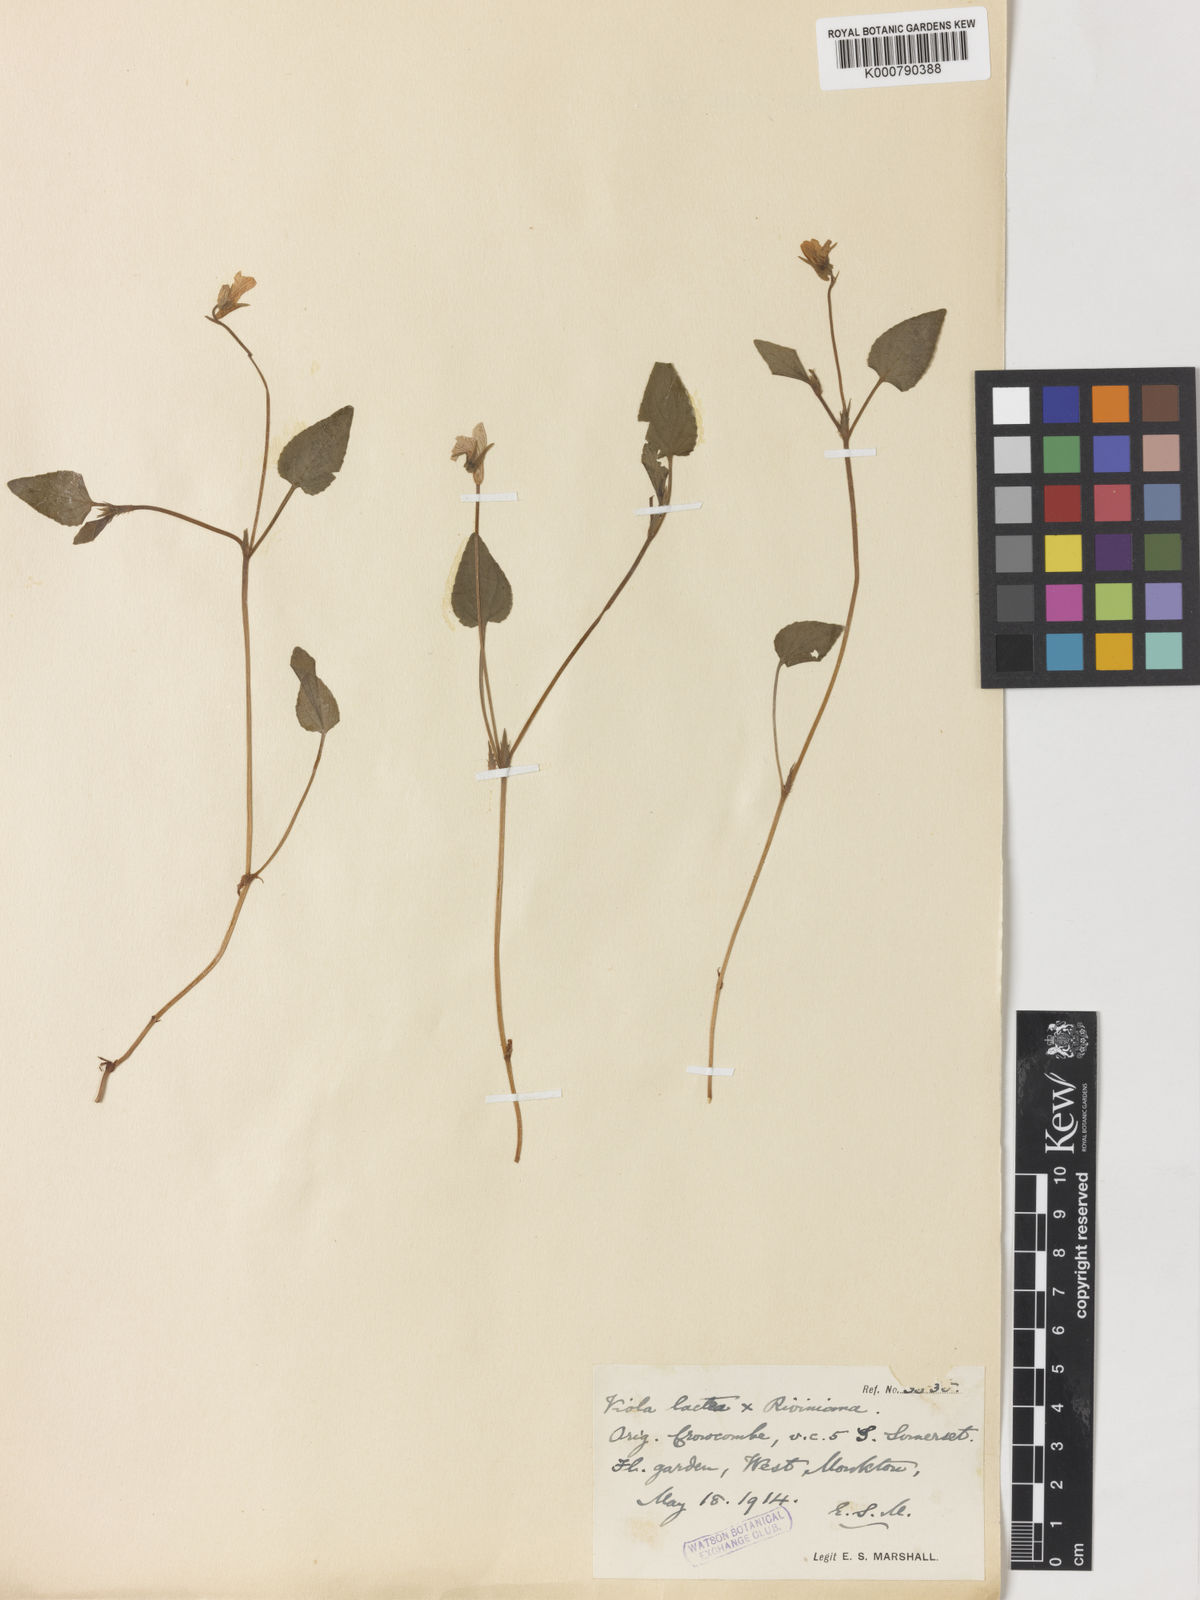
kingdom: Plantae
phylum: Tracheophyta
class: Magnoliopsida
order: Malpighiales
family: Violaceae
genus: Viola
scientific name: Viola lactea
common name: Pale dog-violet
